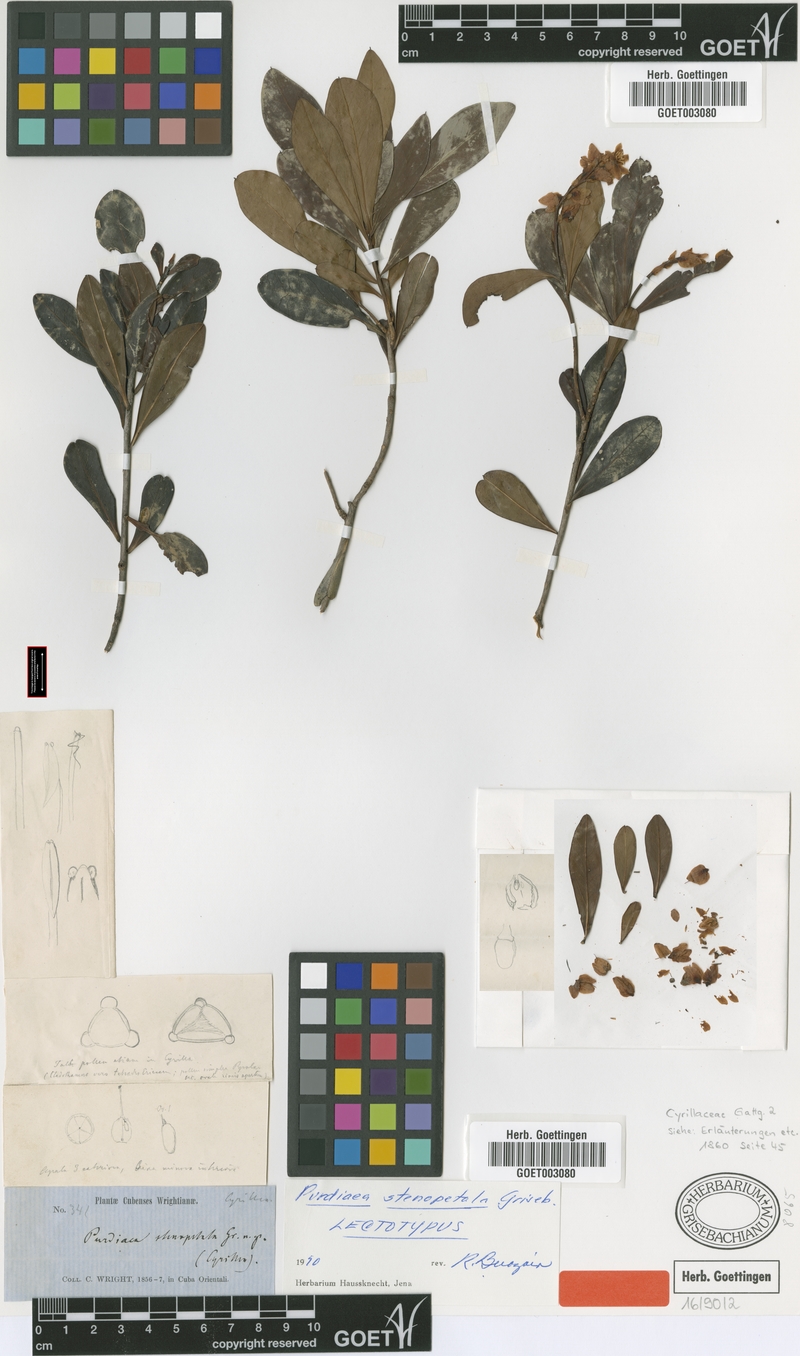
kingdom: Plantae
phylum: Tracheophyta
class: Magnoliopsida
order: Ericales
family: Clethraceae
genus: Purdiaea
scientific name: Purdiaea stenopetala
